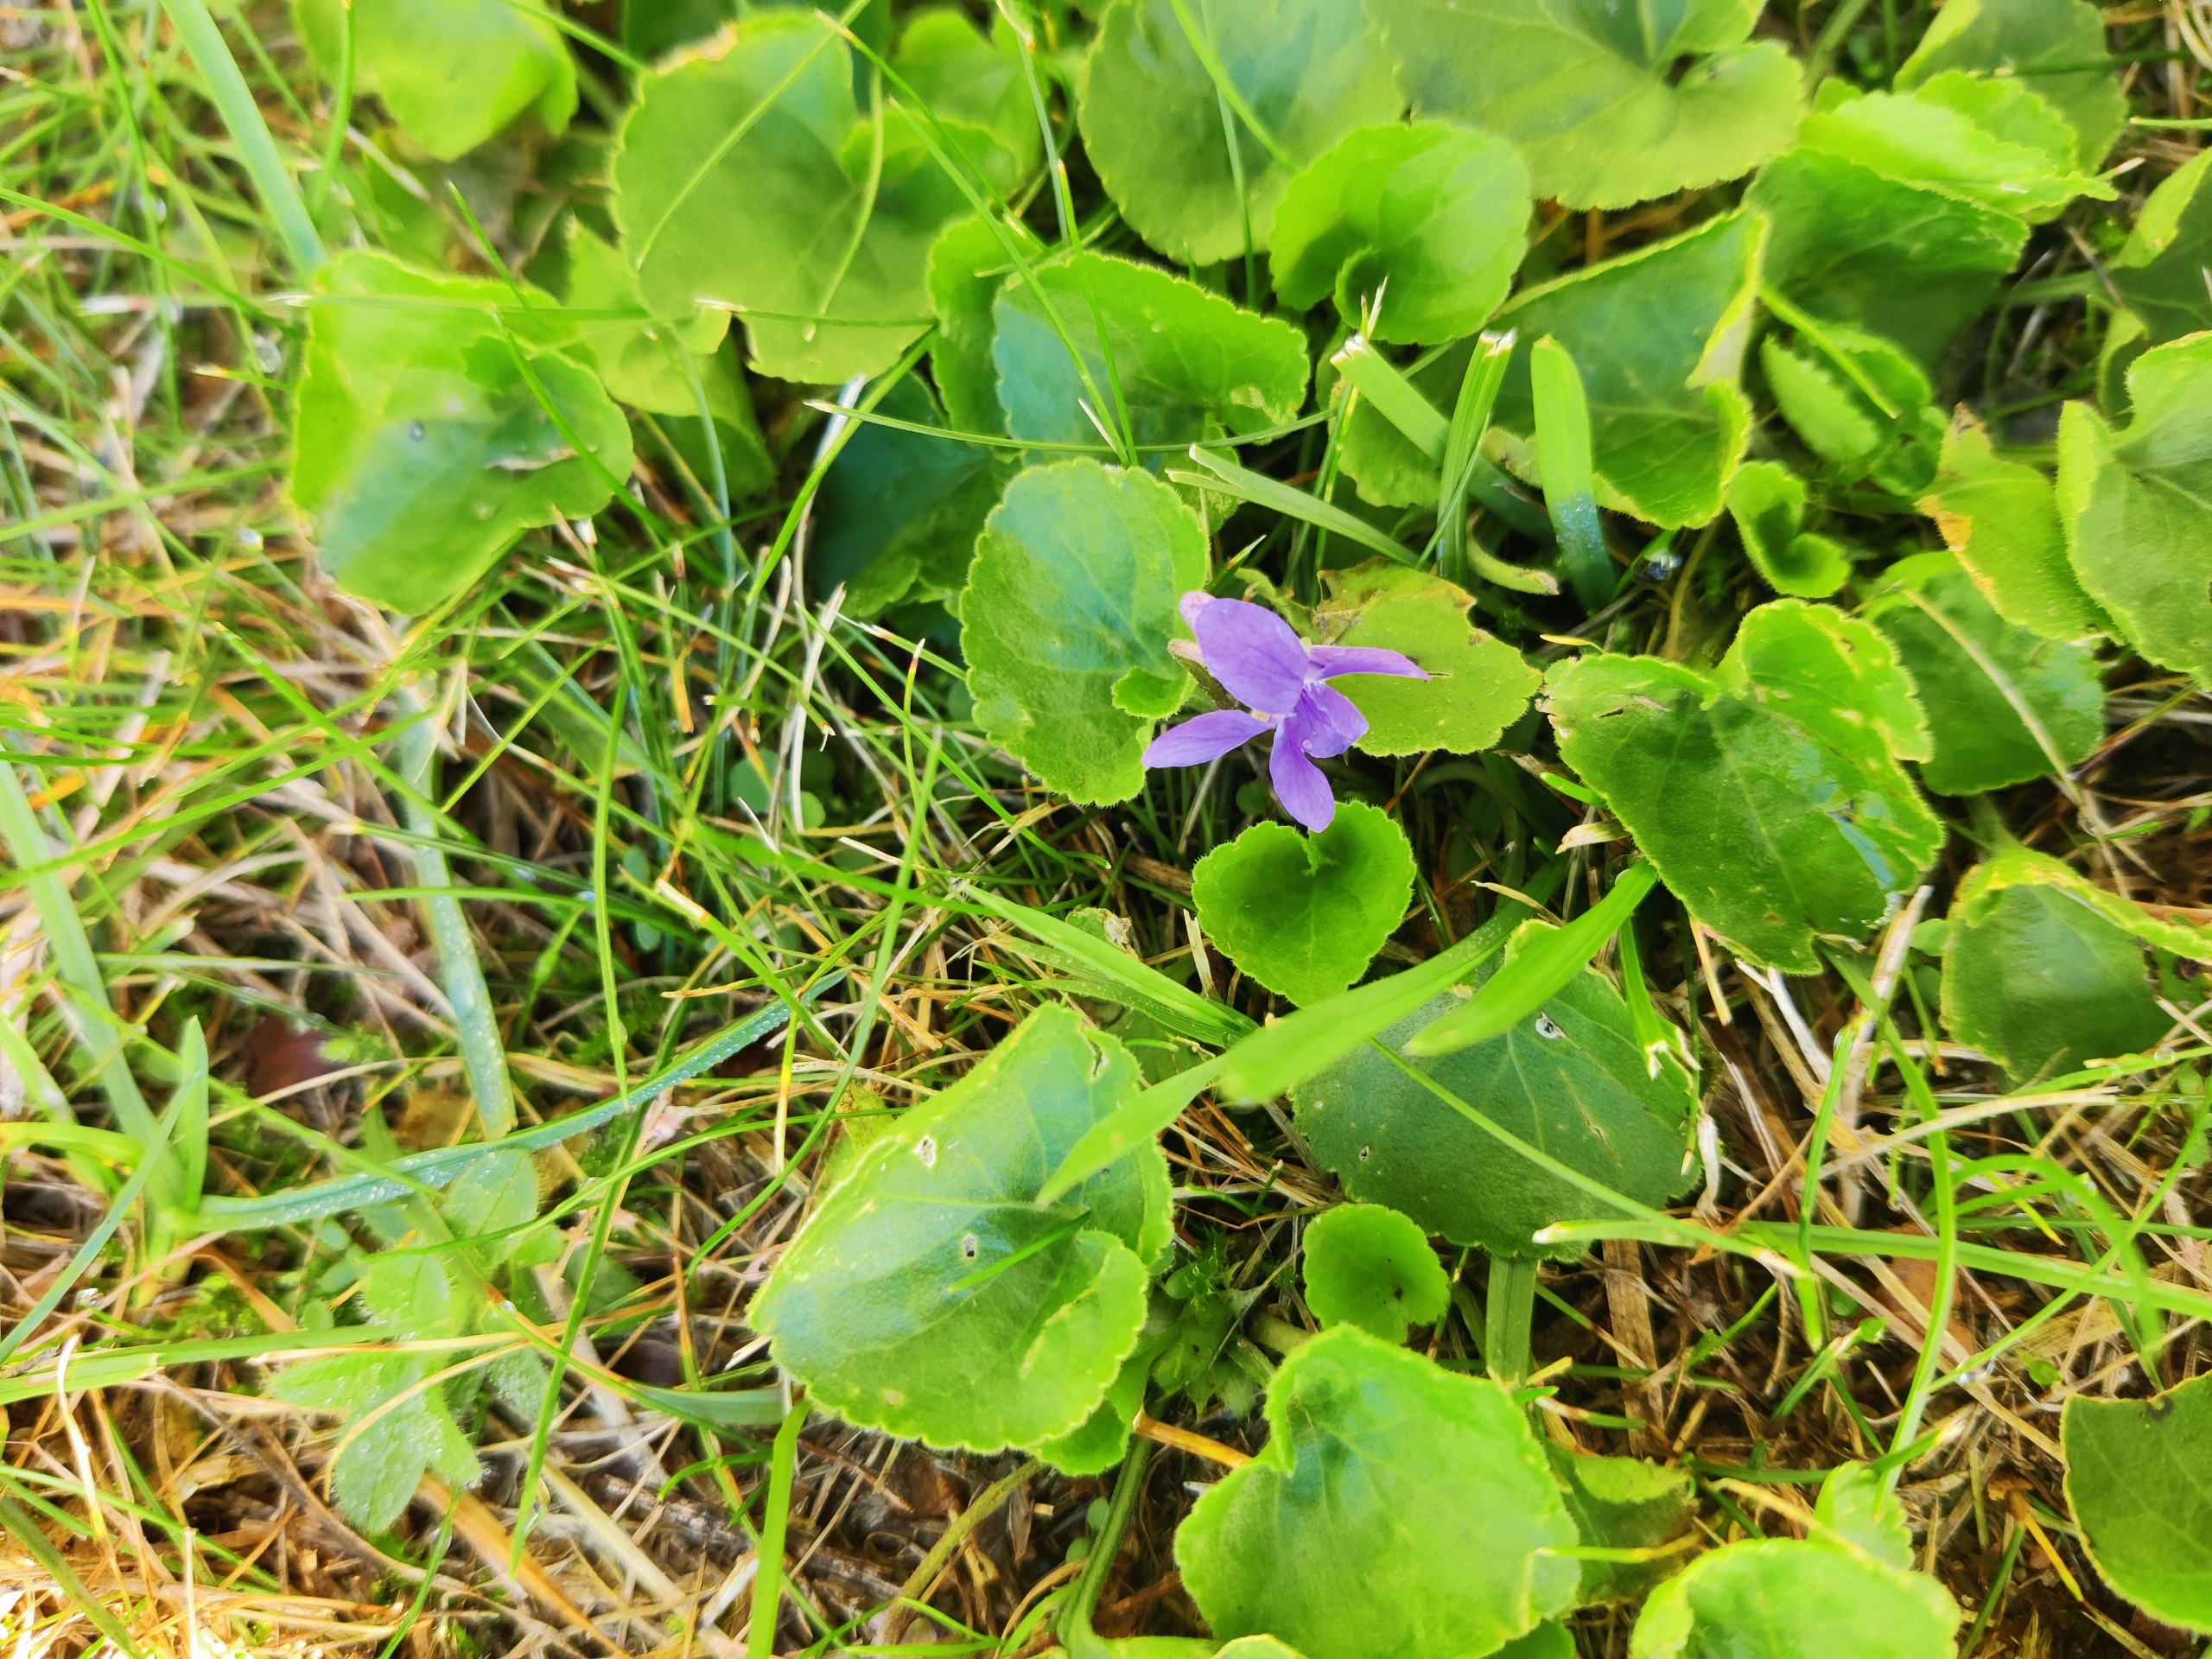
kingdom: Plantae
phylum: Tracheophyta
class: Magnoliopsida
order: Malpighiales
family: Violaceae
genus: Viola
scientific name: Viola odorata
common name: Marts-viol
